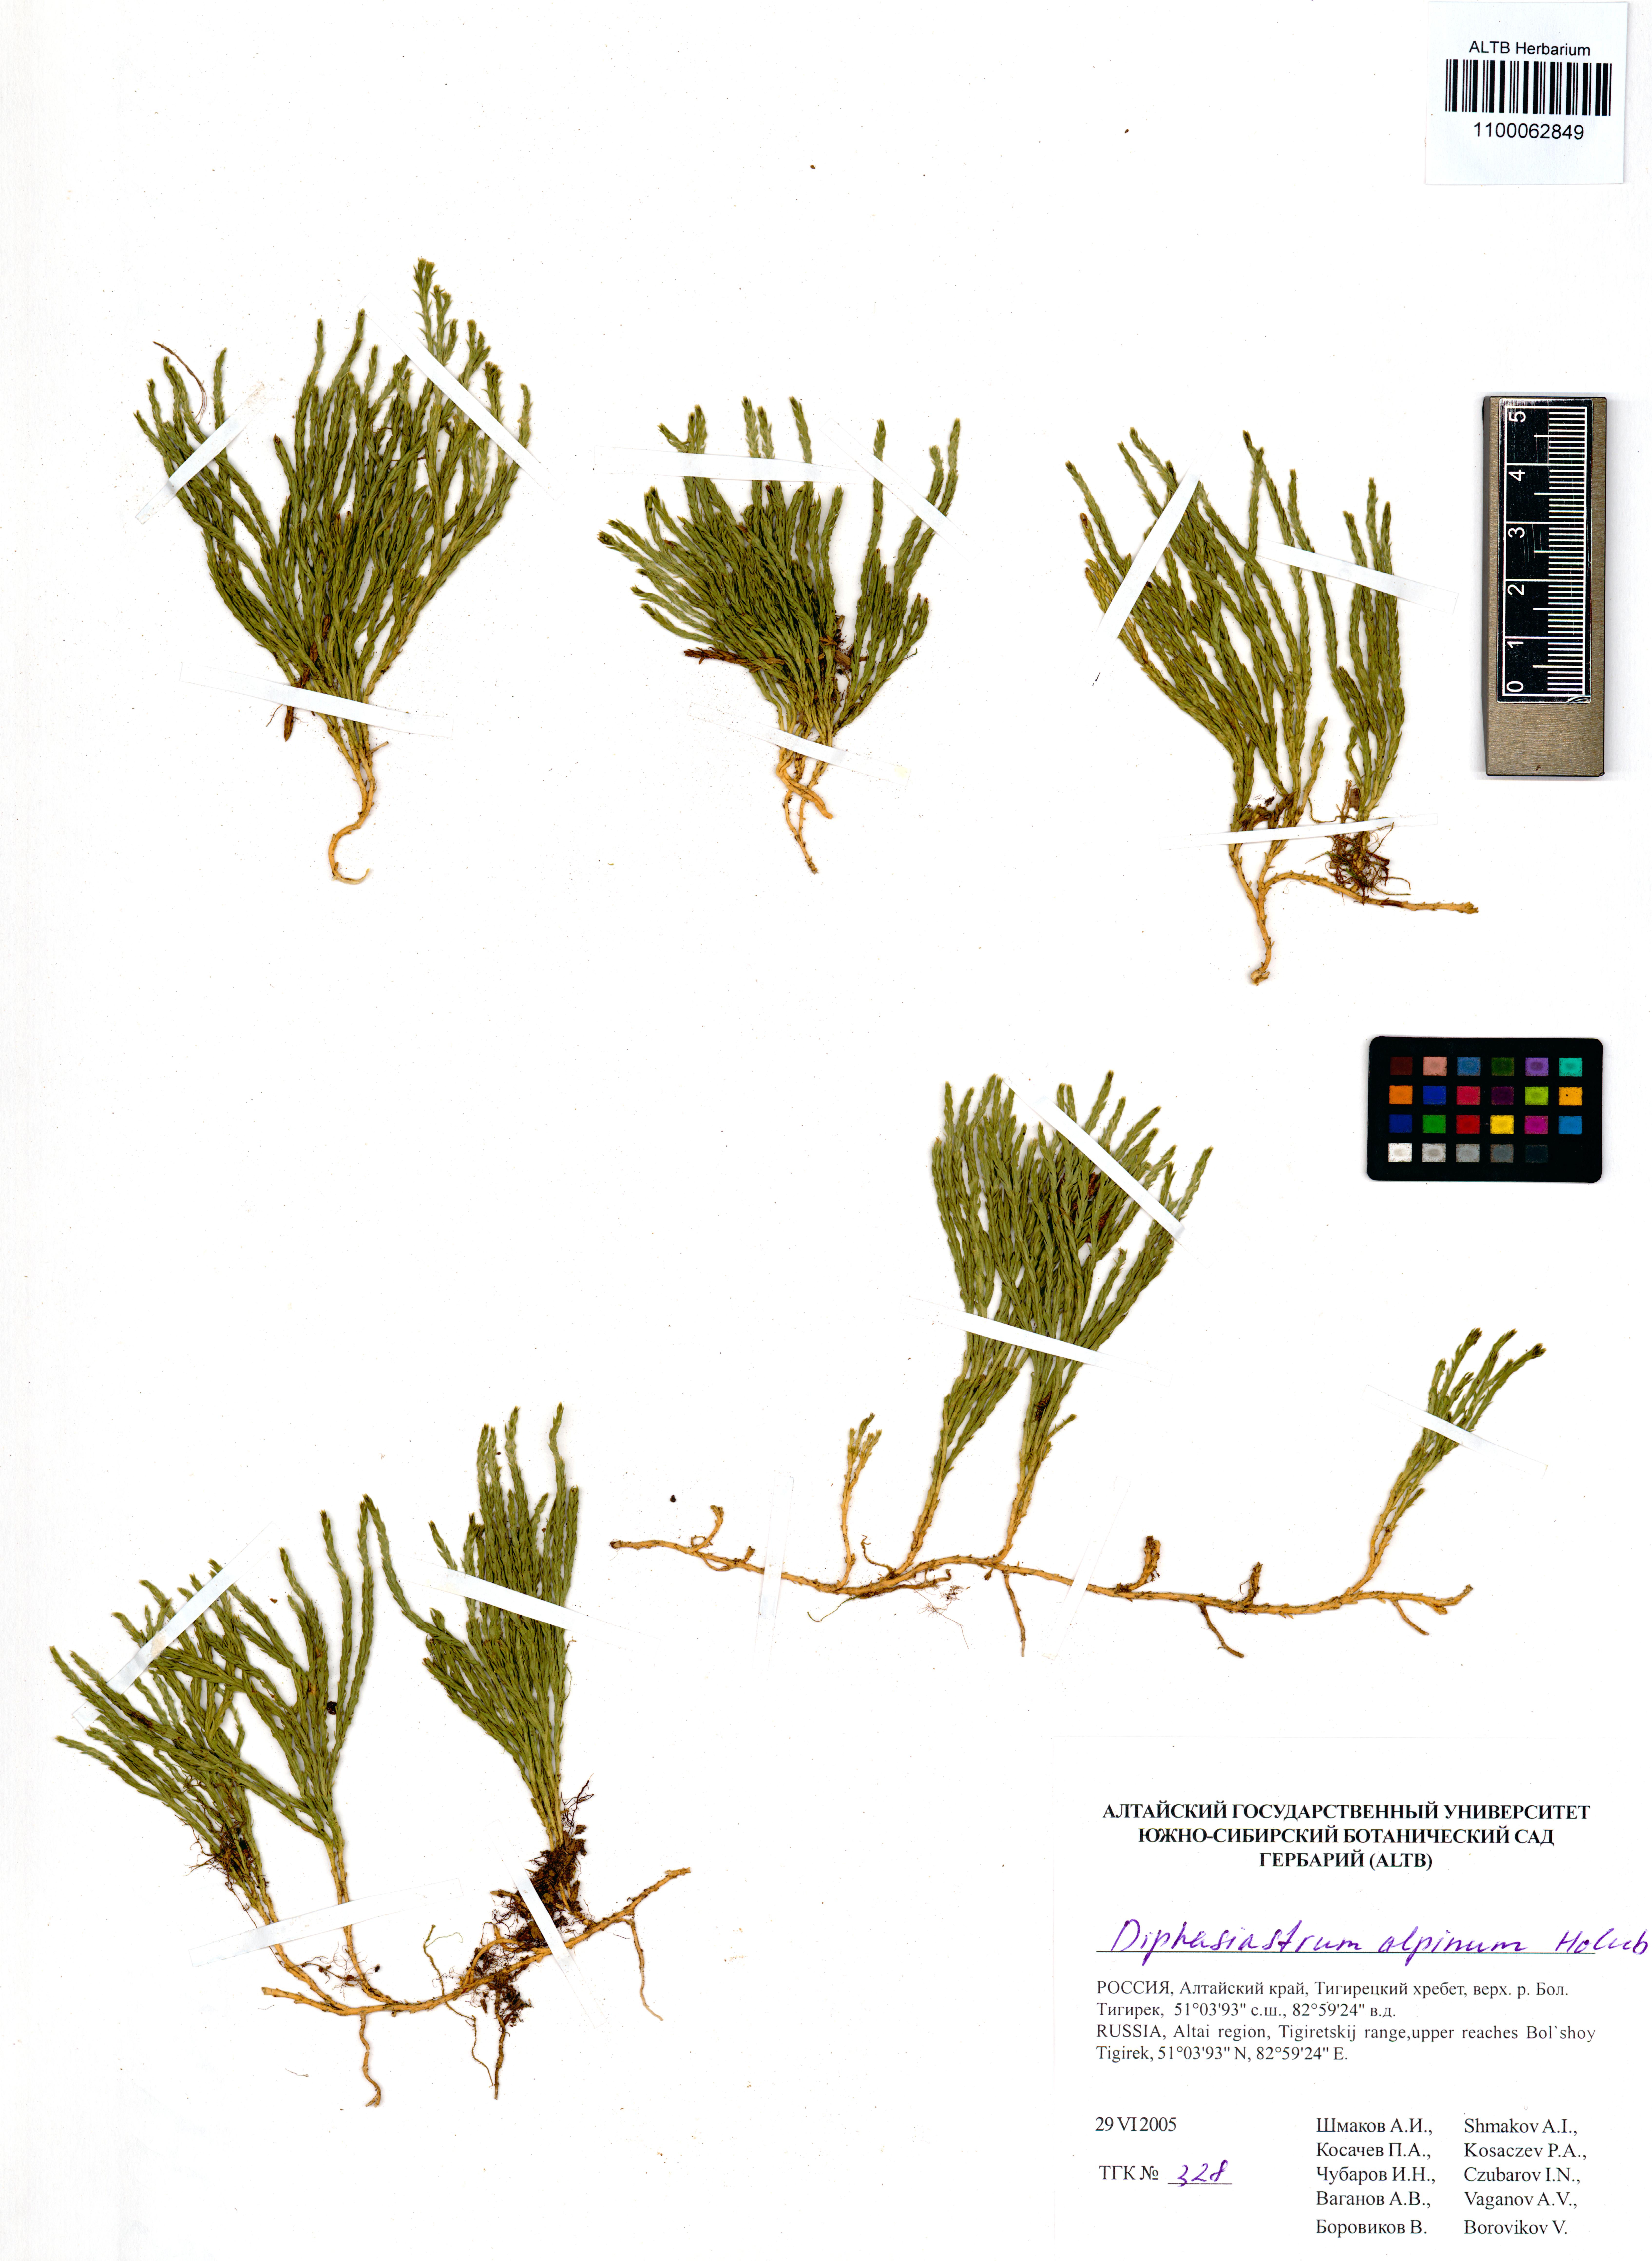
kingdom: Plantae
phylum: Tracheophyta
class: Lycopodiopsida
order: Lycopodiales
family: Lycopodiaceae
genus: Diphasiastrum
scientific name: Diphasiastrum alpinum
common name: Alpine clubmoss
